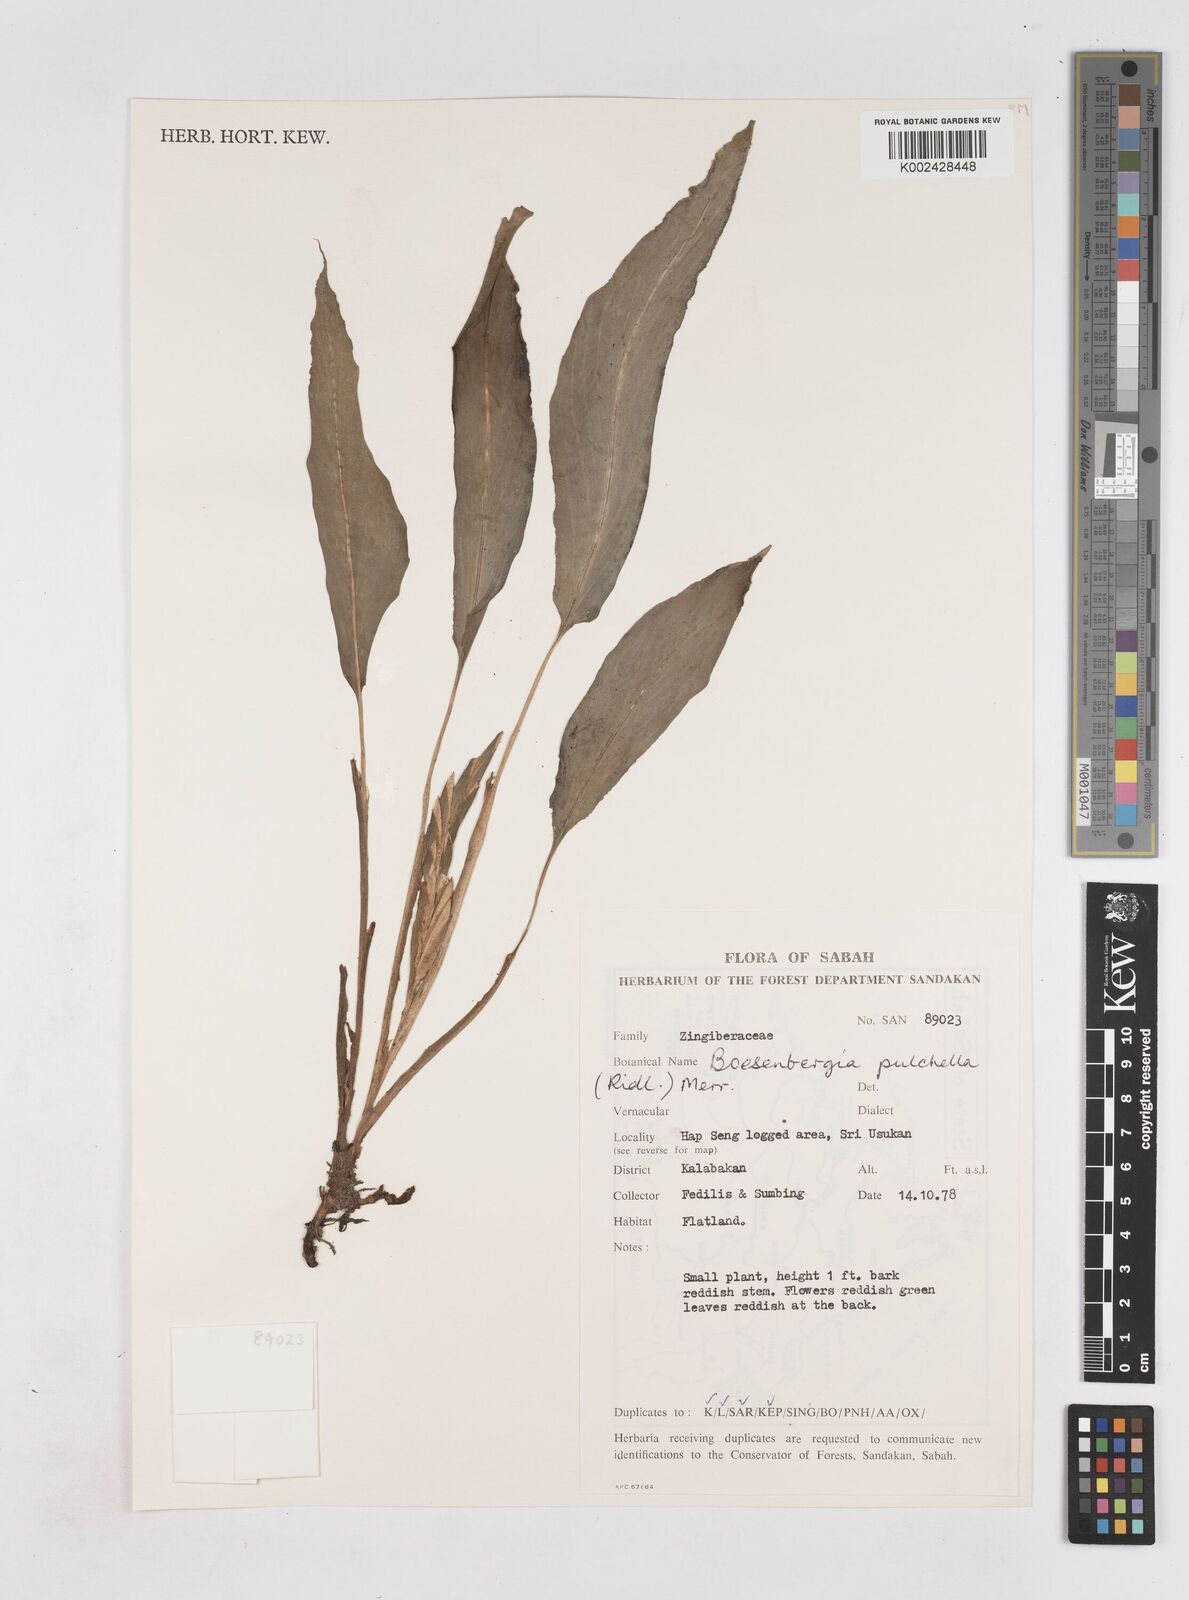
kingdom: Plantae
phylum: Tracheophyta
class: Liliopsida
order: Zingiberales
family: Zingiberaceae
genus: Boesenbergia
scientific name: Boesenbergia pulchella
